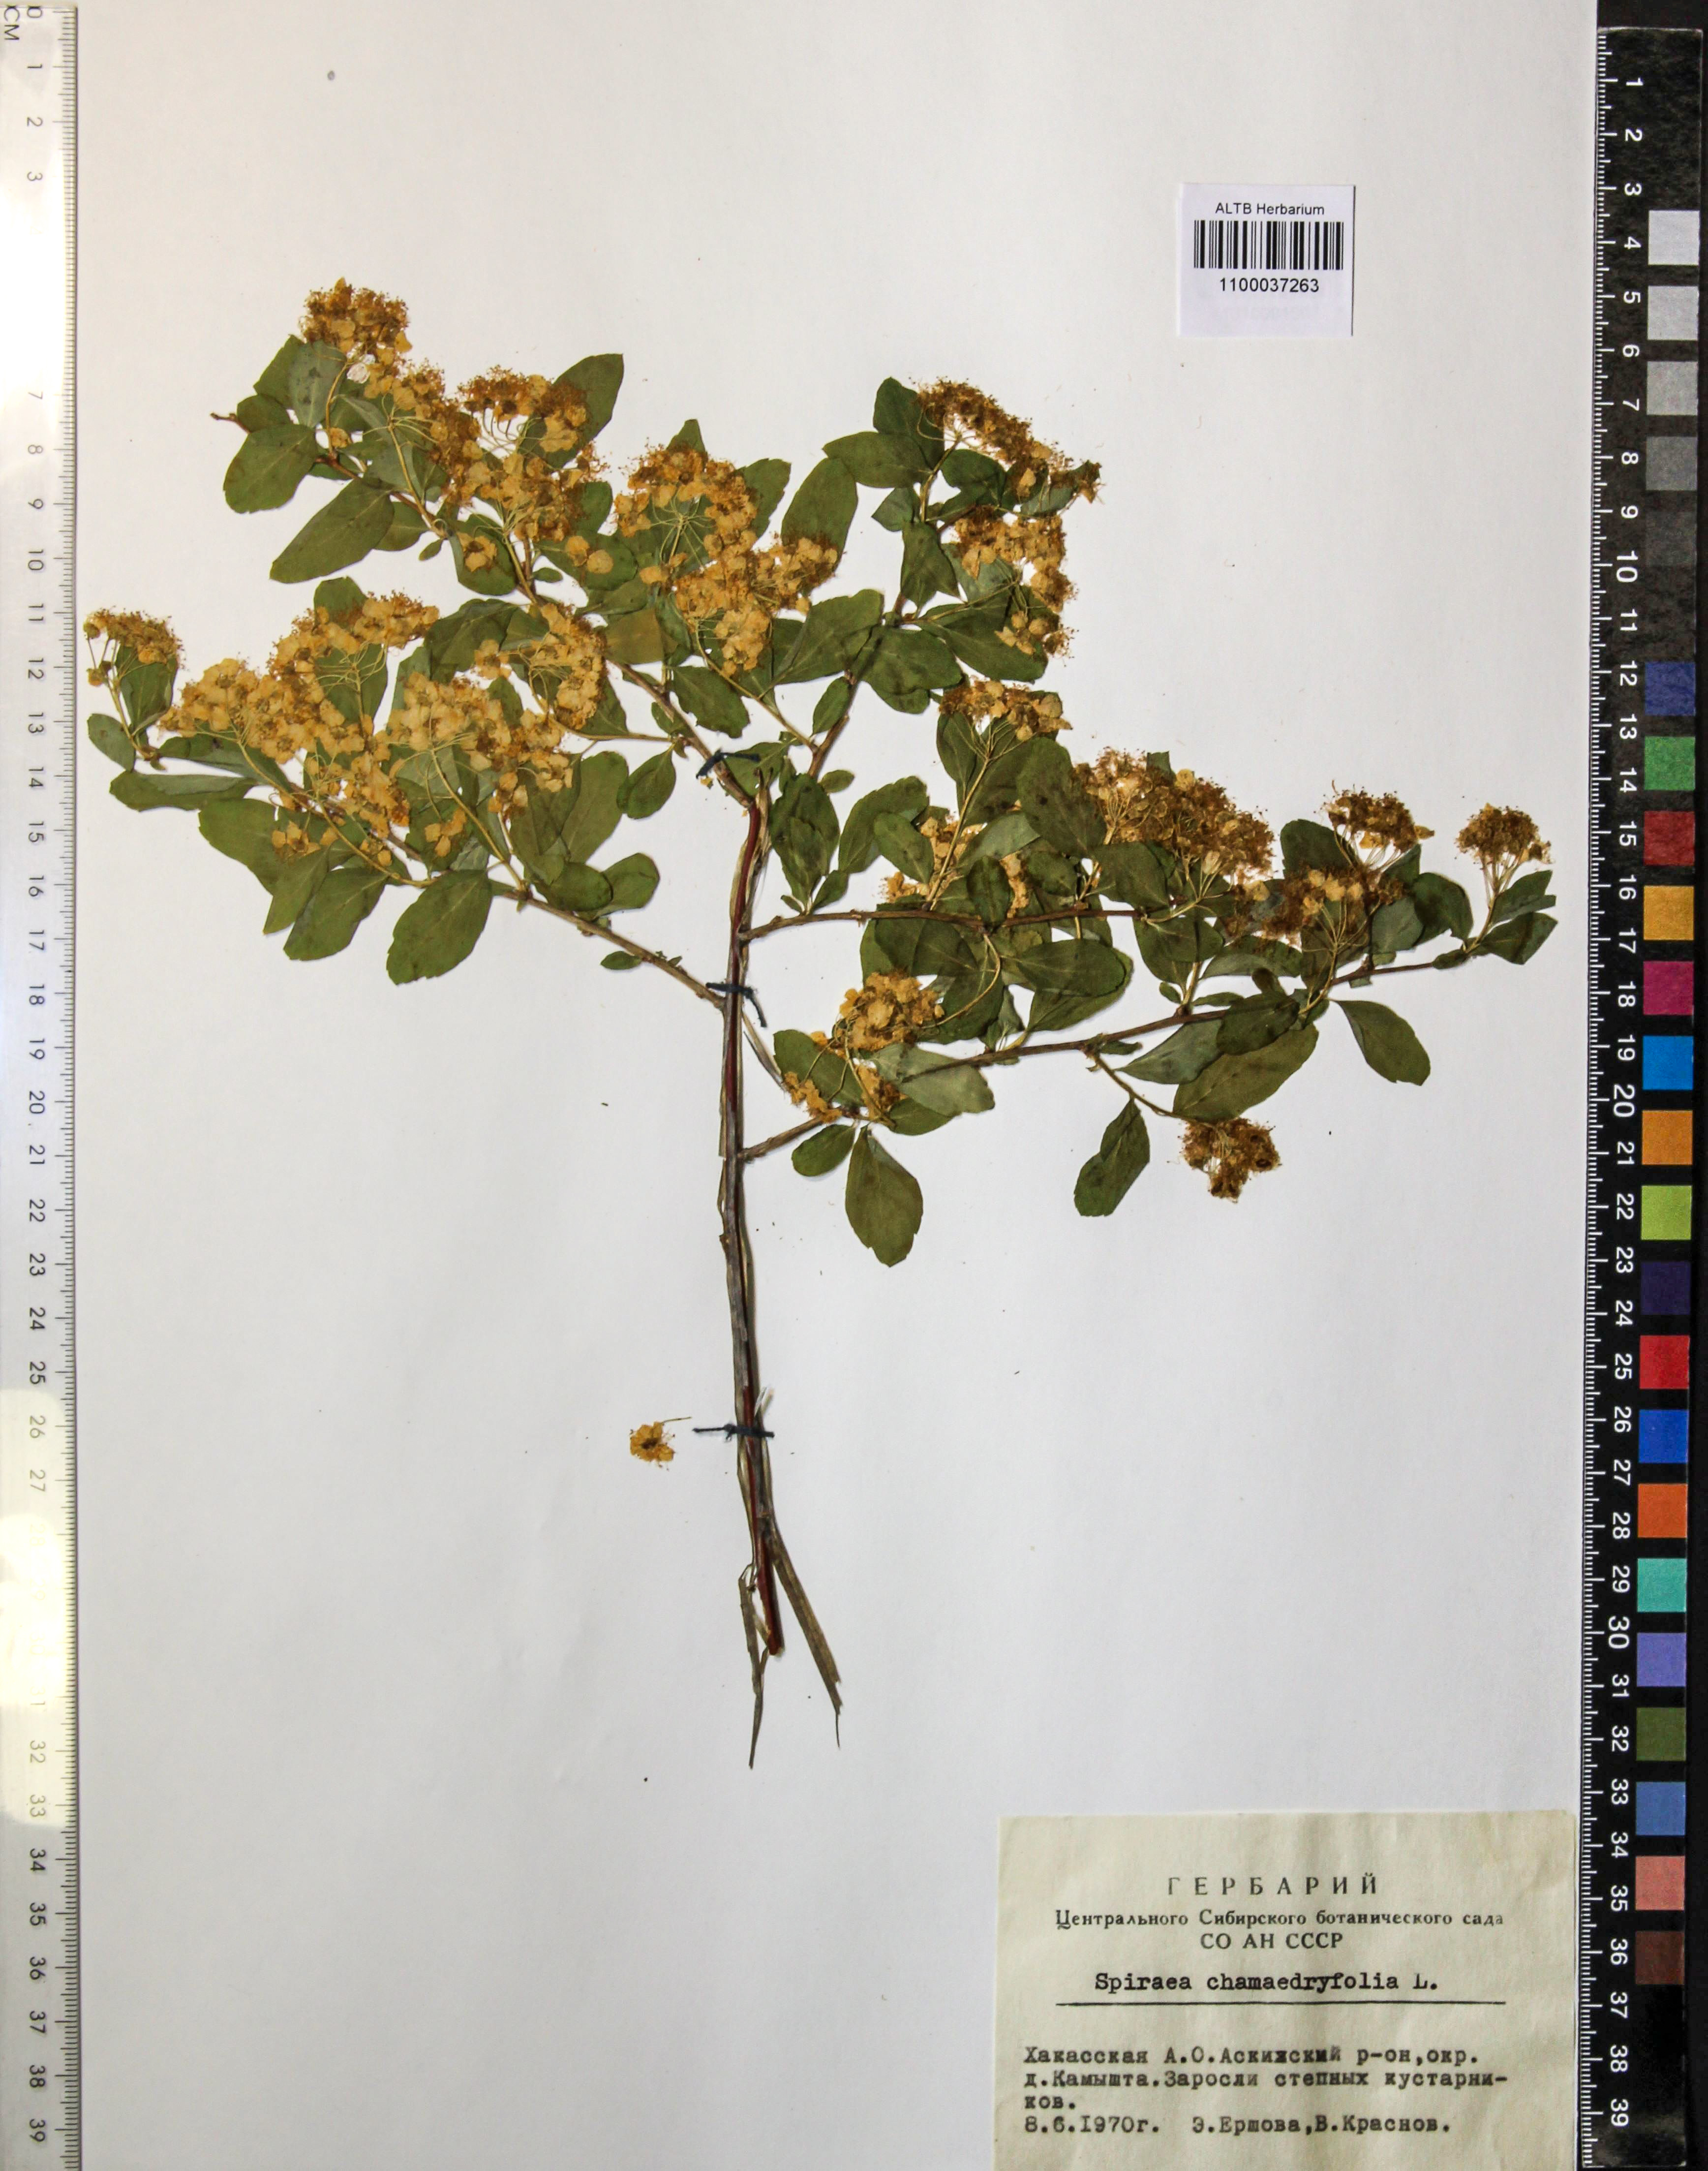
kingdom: Plantae
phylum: Tracheophyta
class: Magnoliopsida
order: Rosales
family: Rosaceae
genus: Spiraea
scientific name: Spiraea chamaedryfolia
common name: Elm-leaved spiraea
